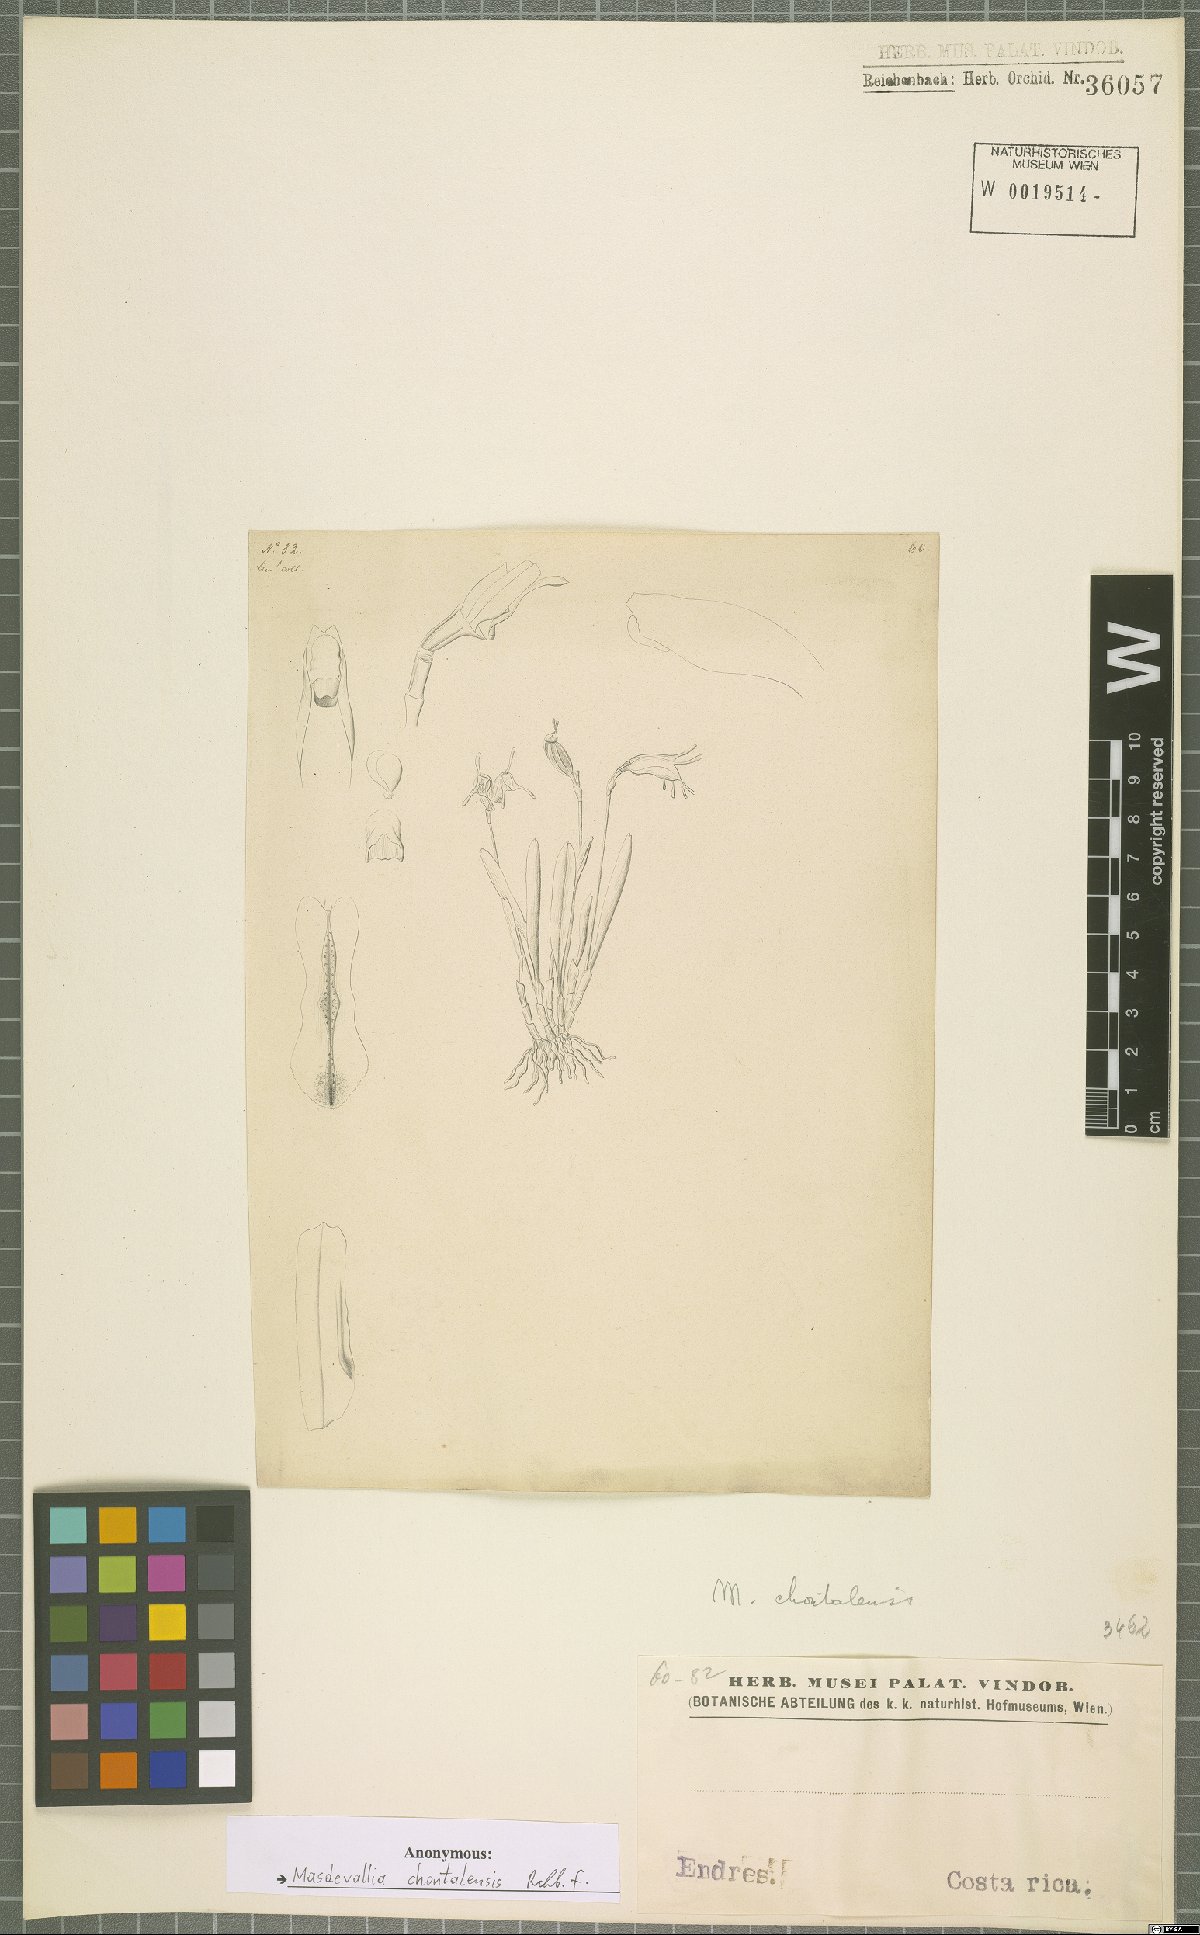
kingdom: Plantae
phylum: Tracheophyta
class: Liliopsida
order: Asparagales
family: Orchidaceae
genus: Masdevallia
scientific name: Masdevallia chontalensis
